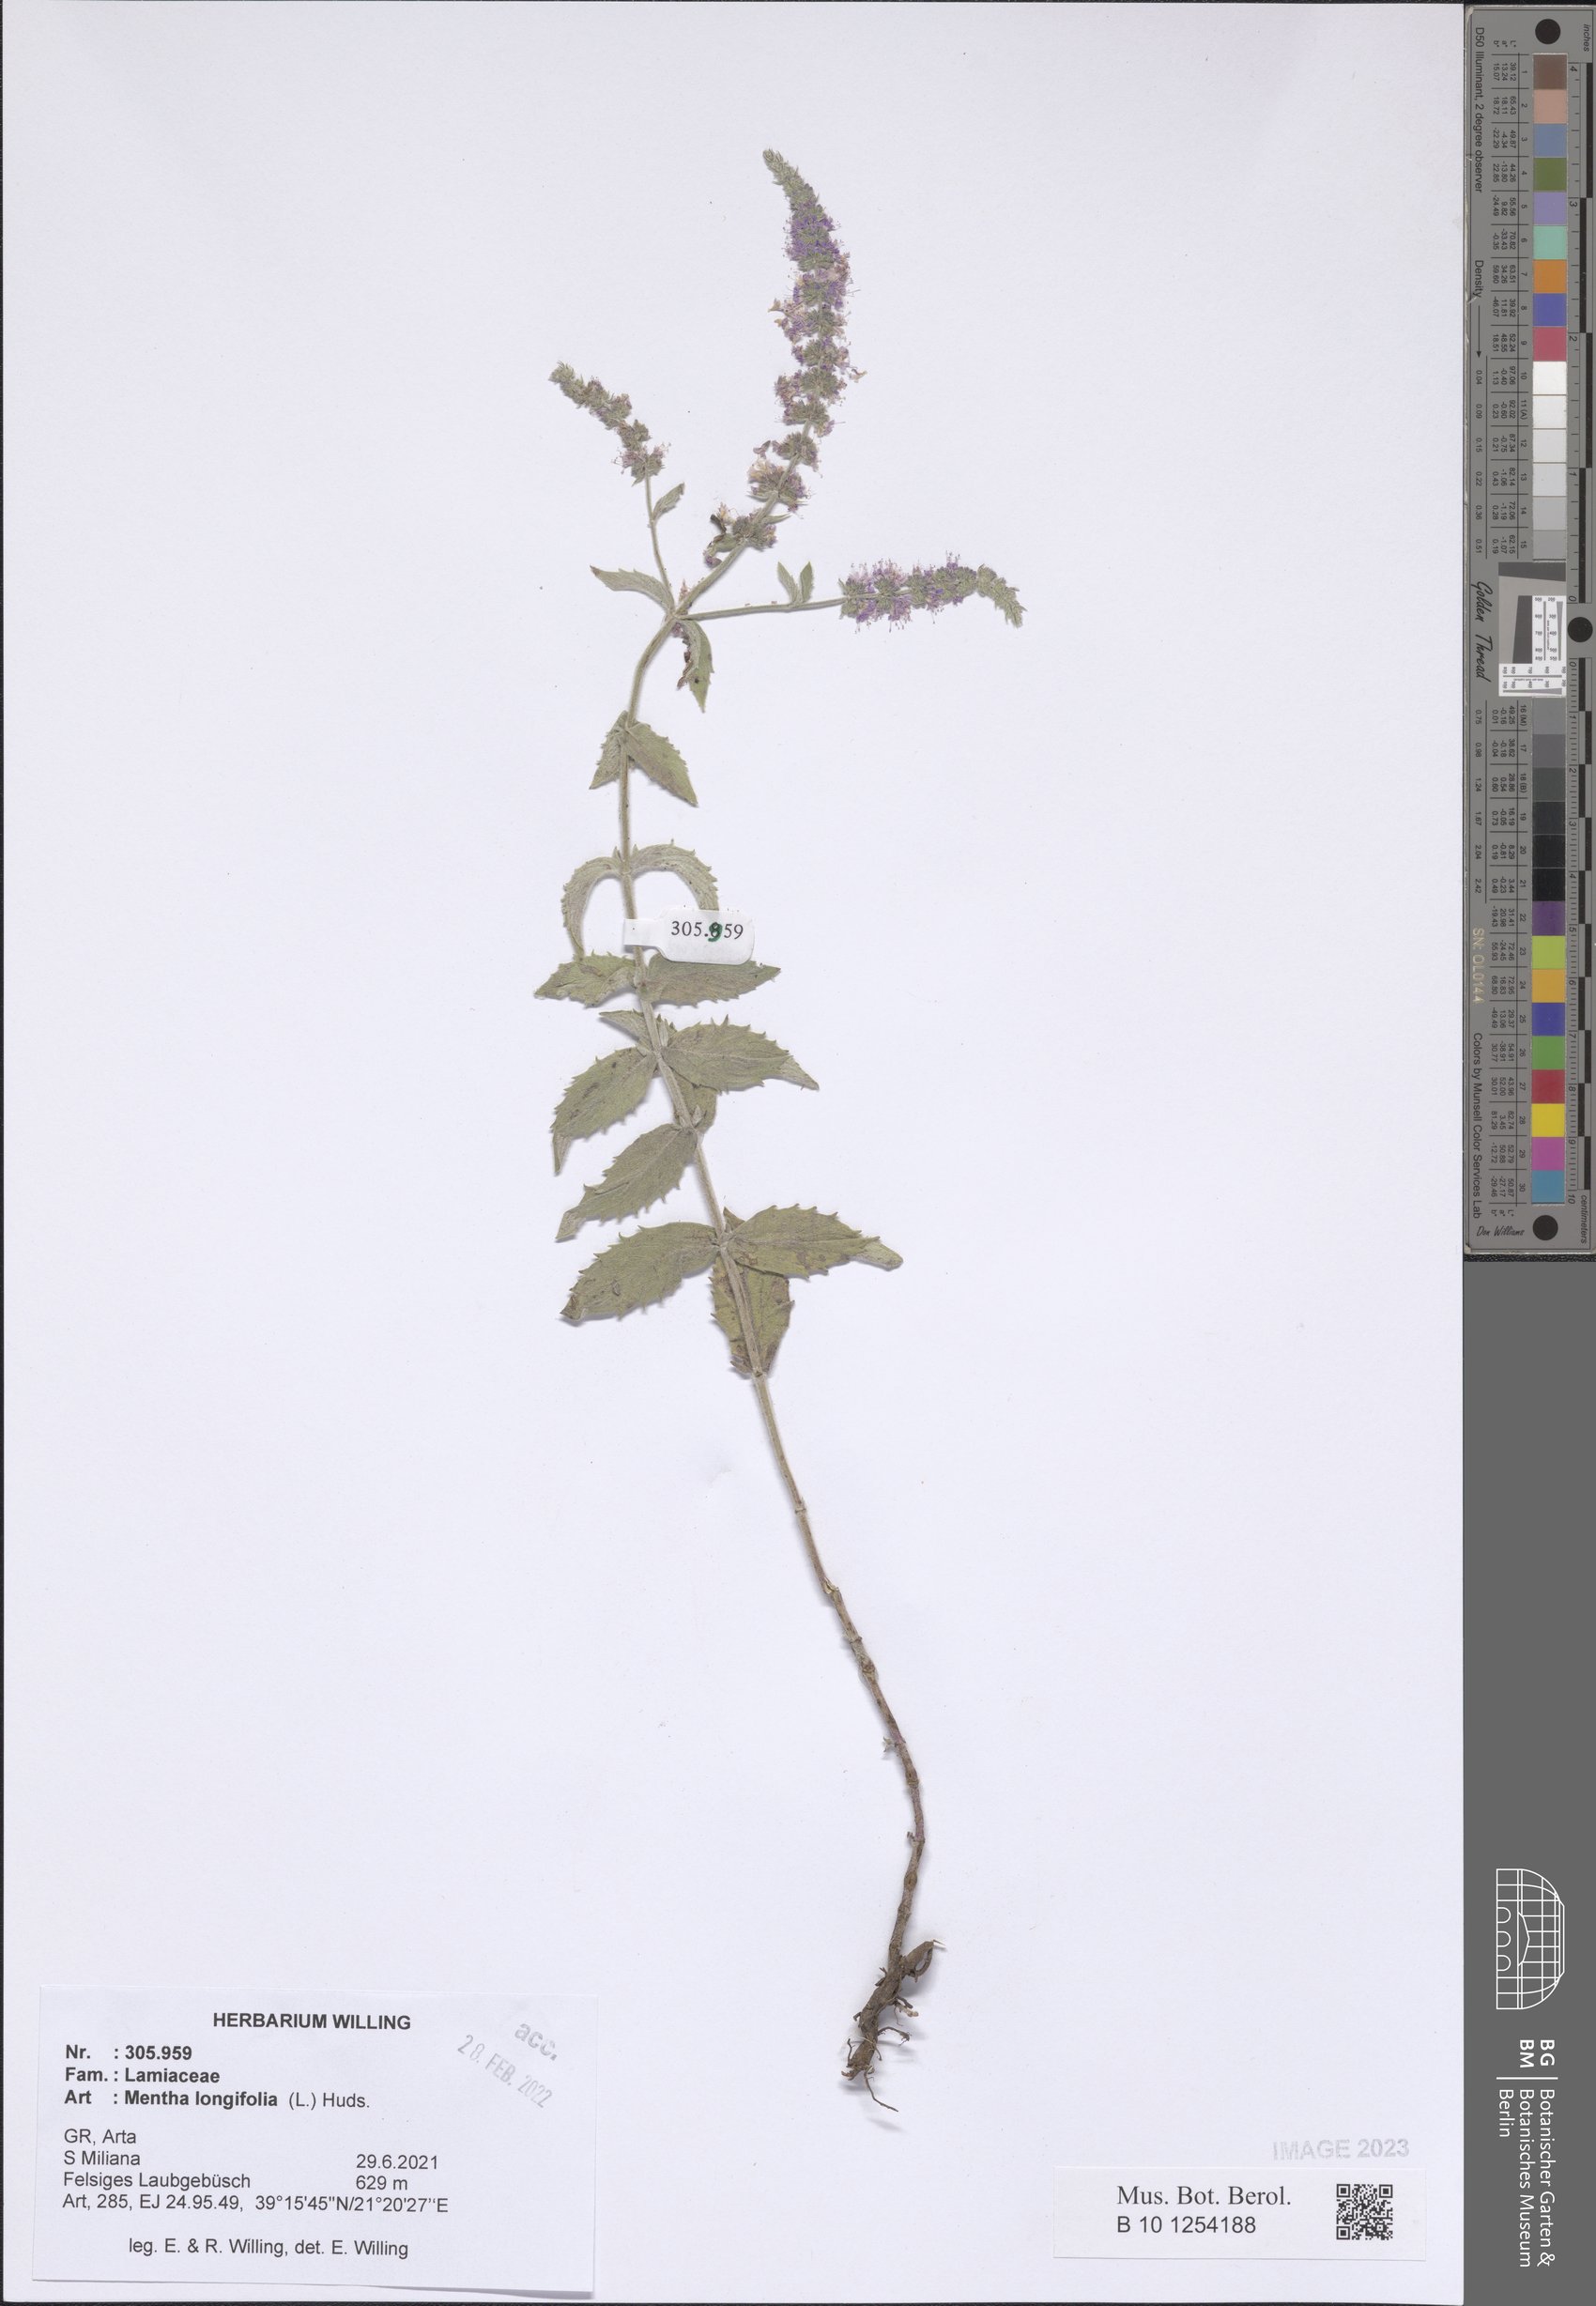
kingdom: Plantae
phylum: Tracheophyta
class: Magnoliopsida
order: Lamiales
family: Lamiaceae
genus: Mentha
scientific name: Mentha longifolia
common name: Horse mint
